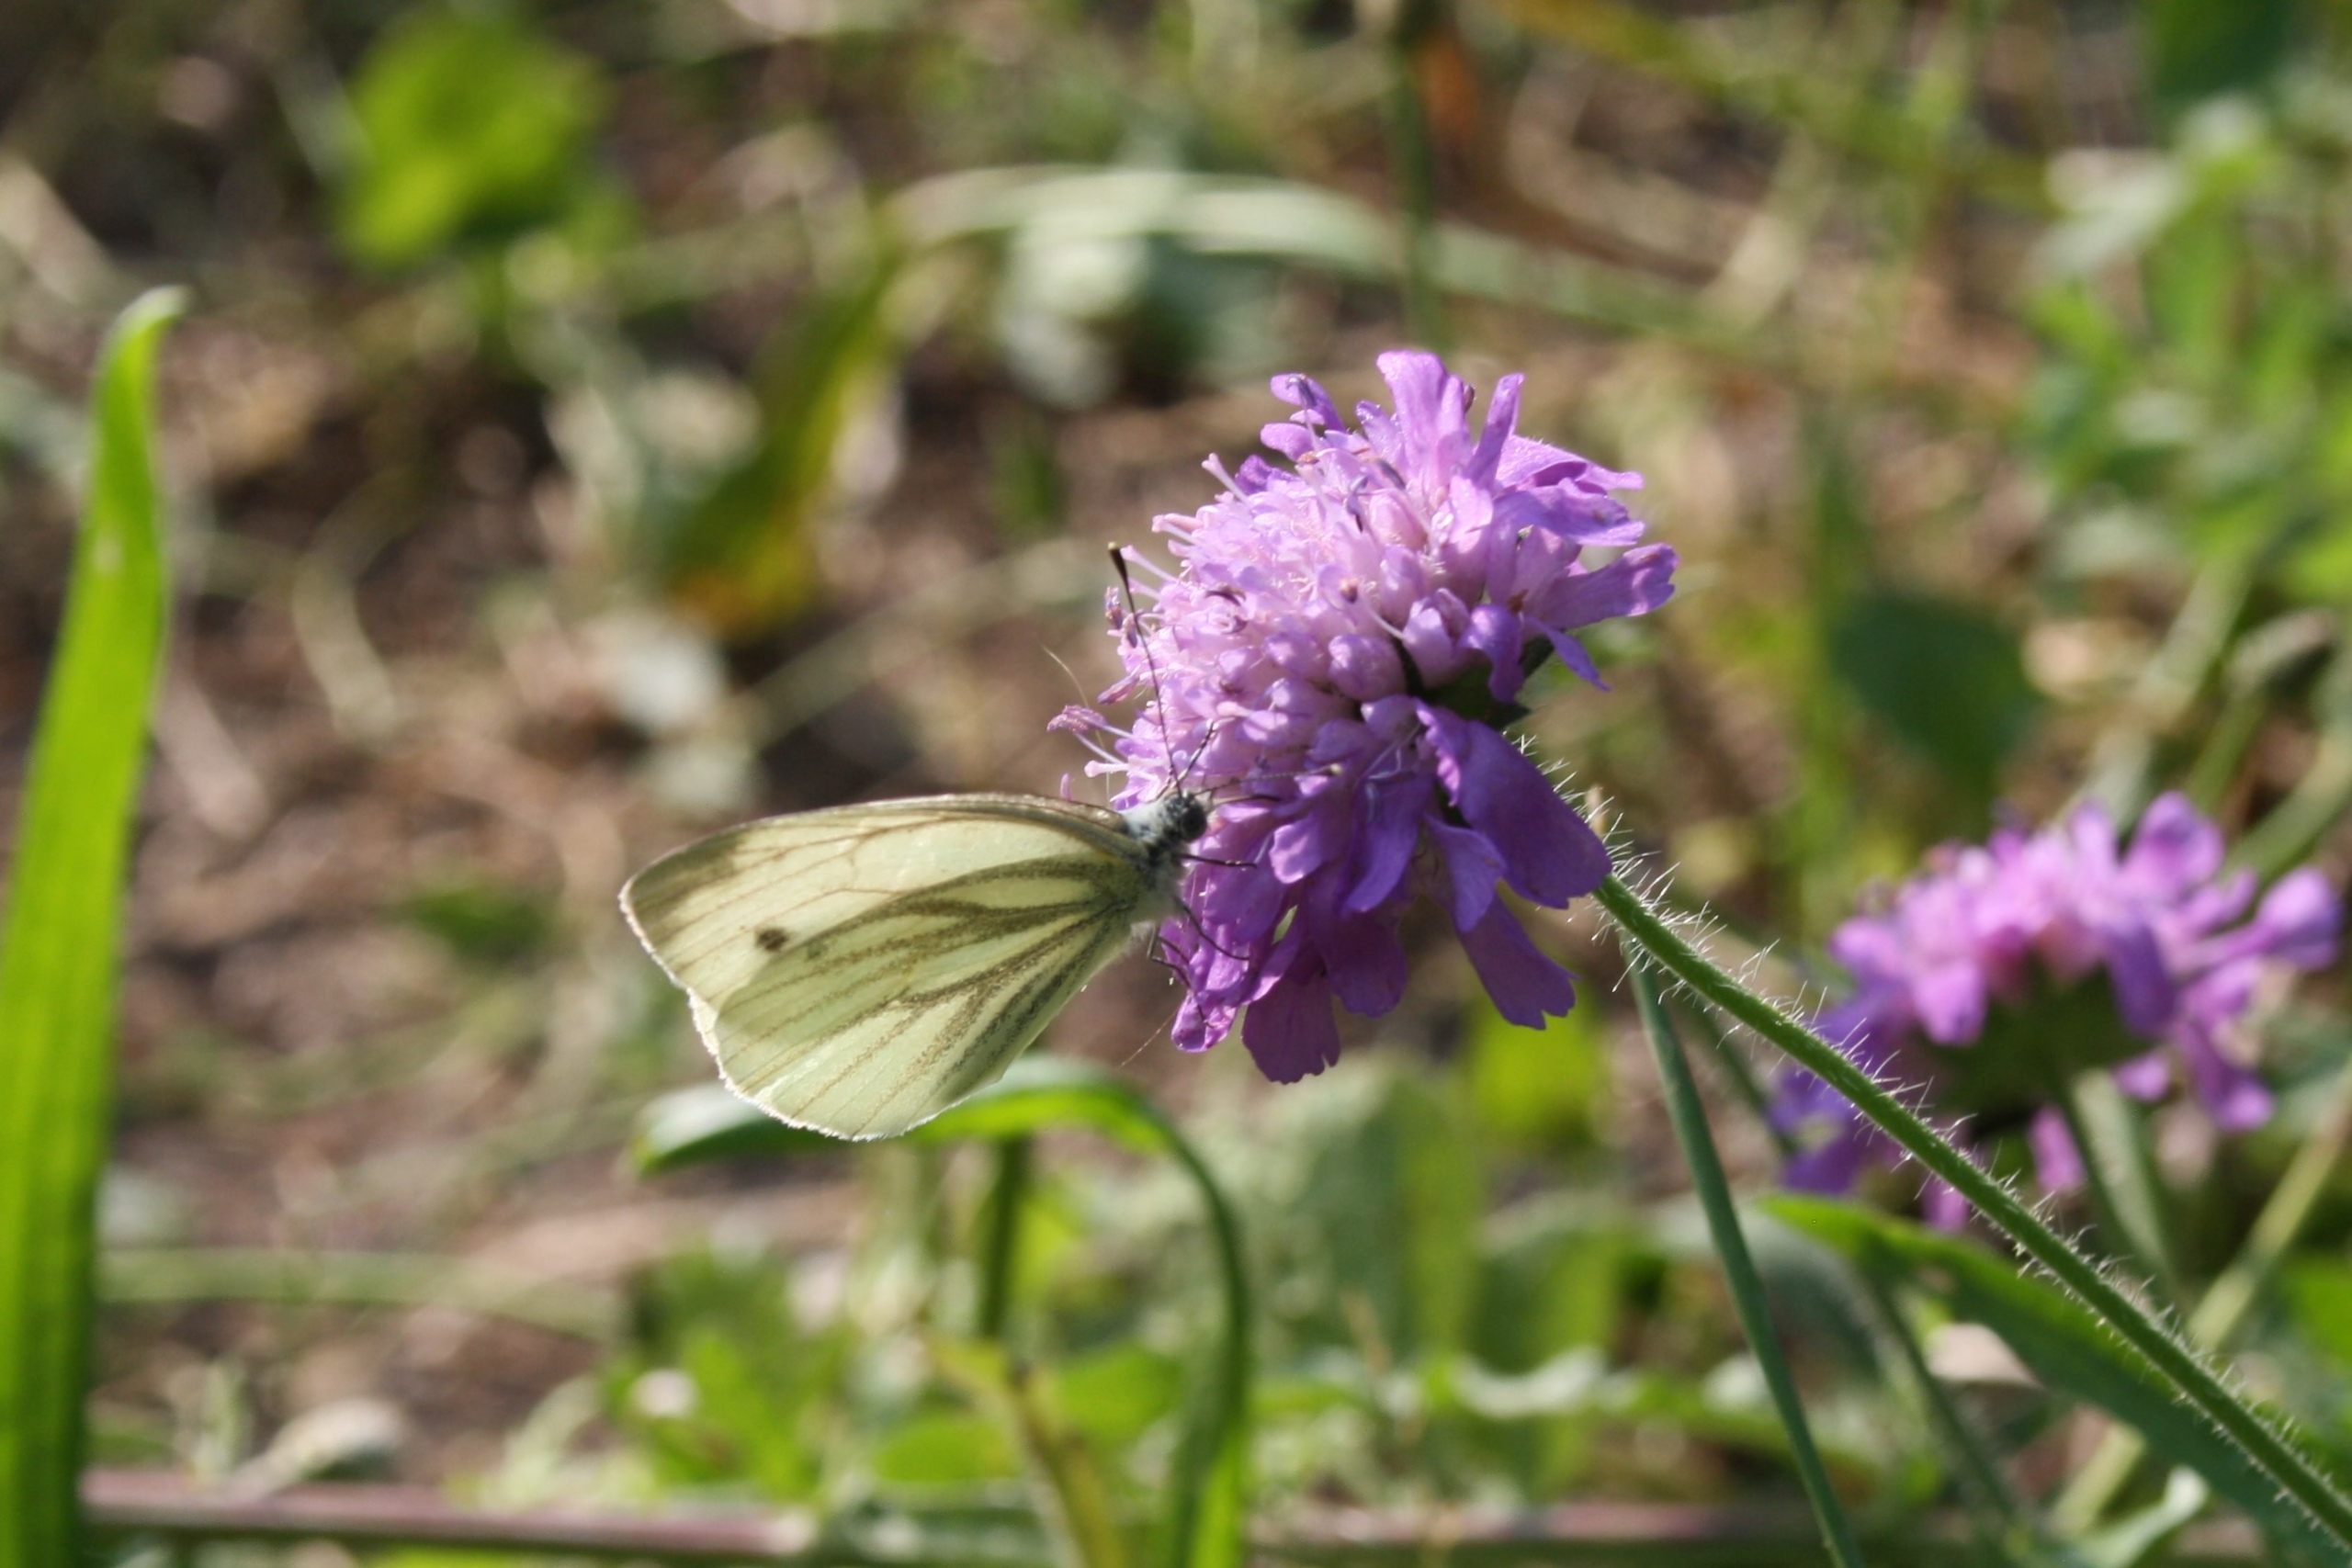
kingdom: Animalia
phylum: Arthropoda
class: Insecta
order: Lepidoptera
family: Pieridae
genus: Pieris
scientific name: Pieris napi
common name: Grønåret kålsommerfugl
